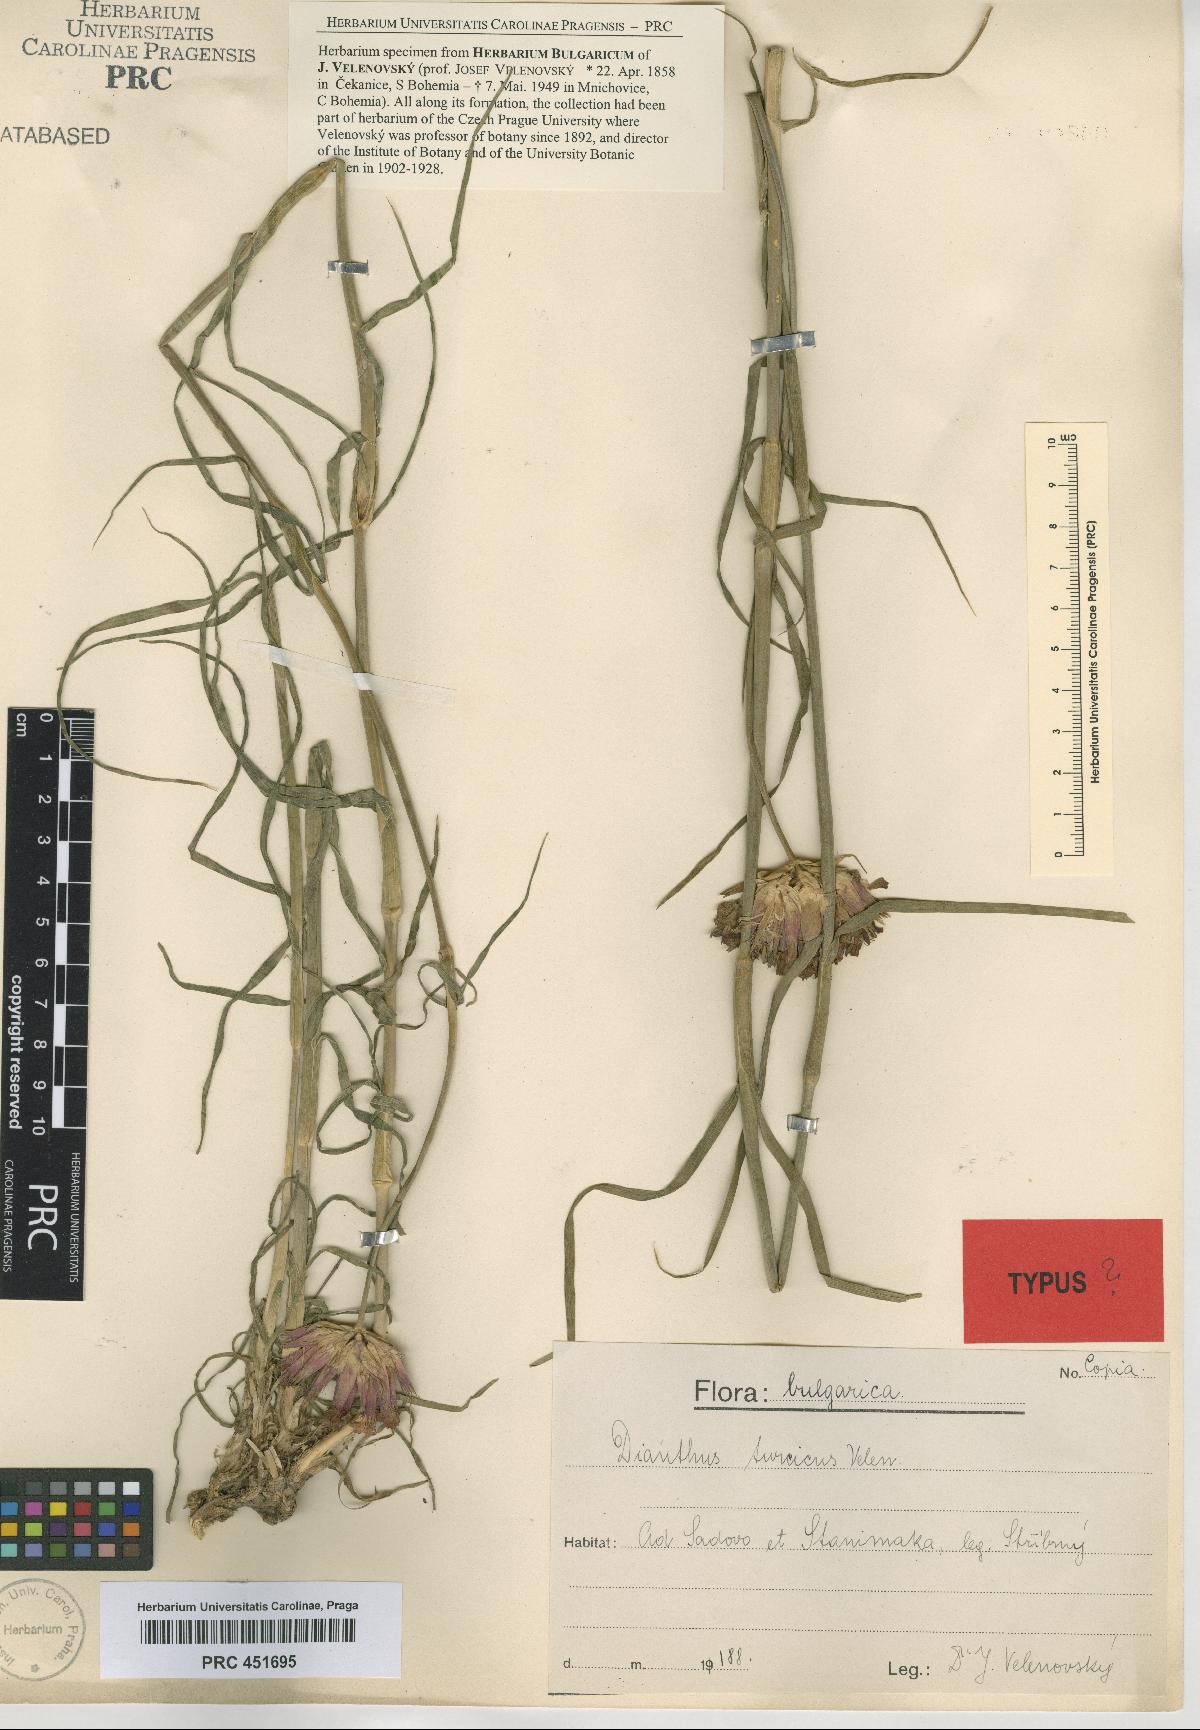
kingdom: Plantae
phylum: Tracheophyta
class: Magnoliopsida
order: Caryophyllales
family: Caryophyllaceae
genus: Dianthus
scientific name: Dianthus cruentus
